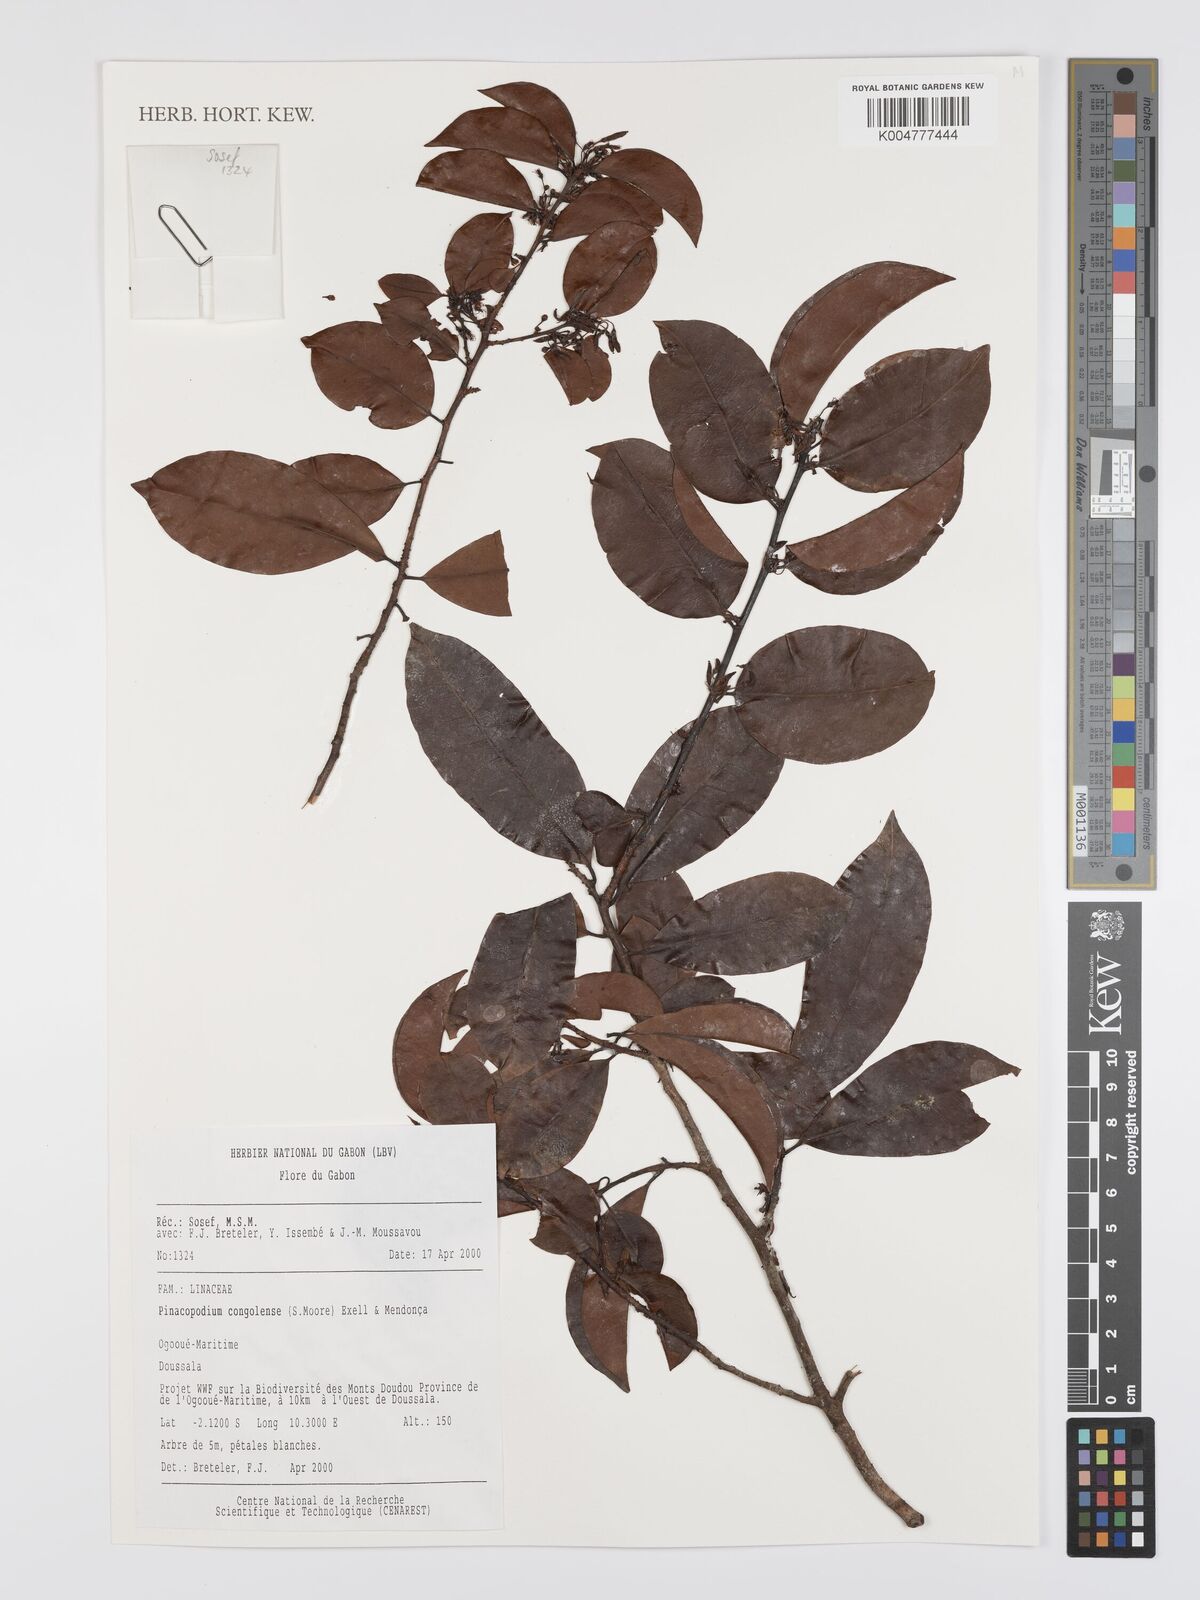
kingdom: Plantae
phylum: Tracheophyta
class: Magnoliopsida
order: Malpighiales
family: Erythroxylaceae
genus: Pinacopodium
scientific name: Pinacopodium congolense
